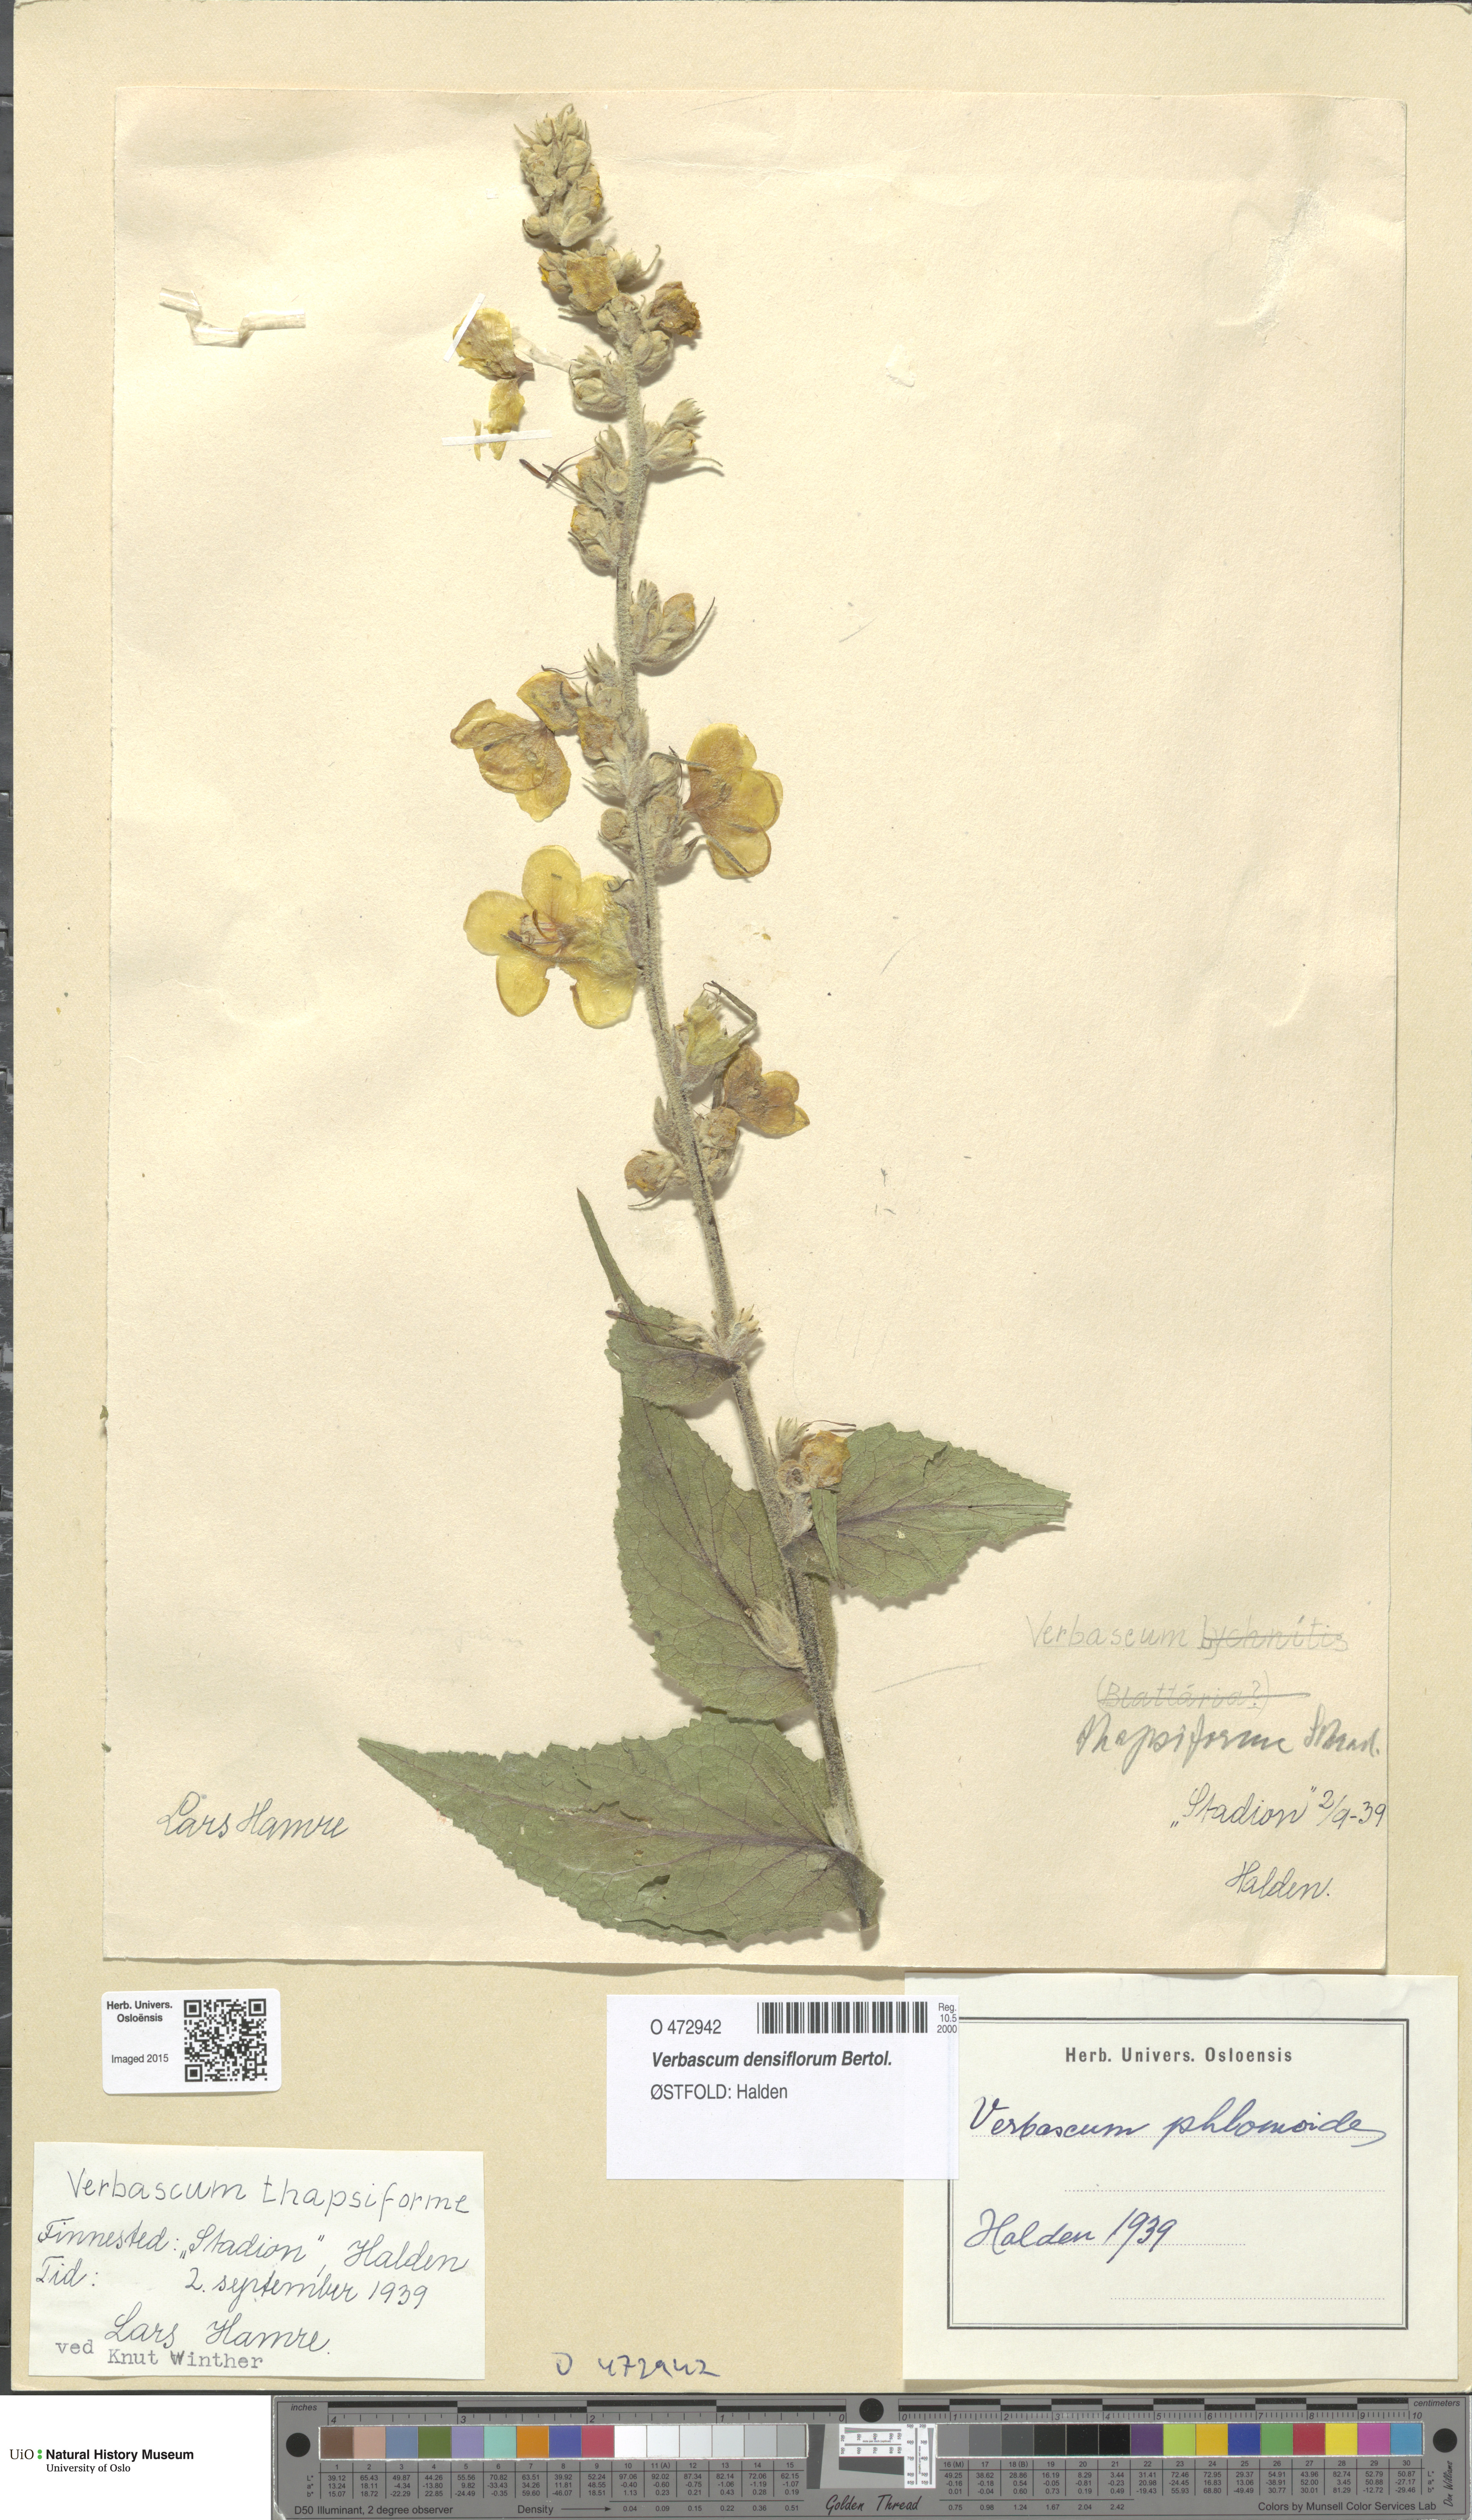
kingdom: Plantae
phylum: Tracheophyta
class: Magnoliopsida
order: Lamiales
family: Scrophulariaceae
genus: Verbascum
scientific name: Verbascum densiflorum
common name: Dense-flowered mullein
